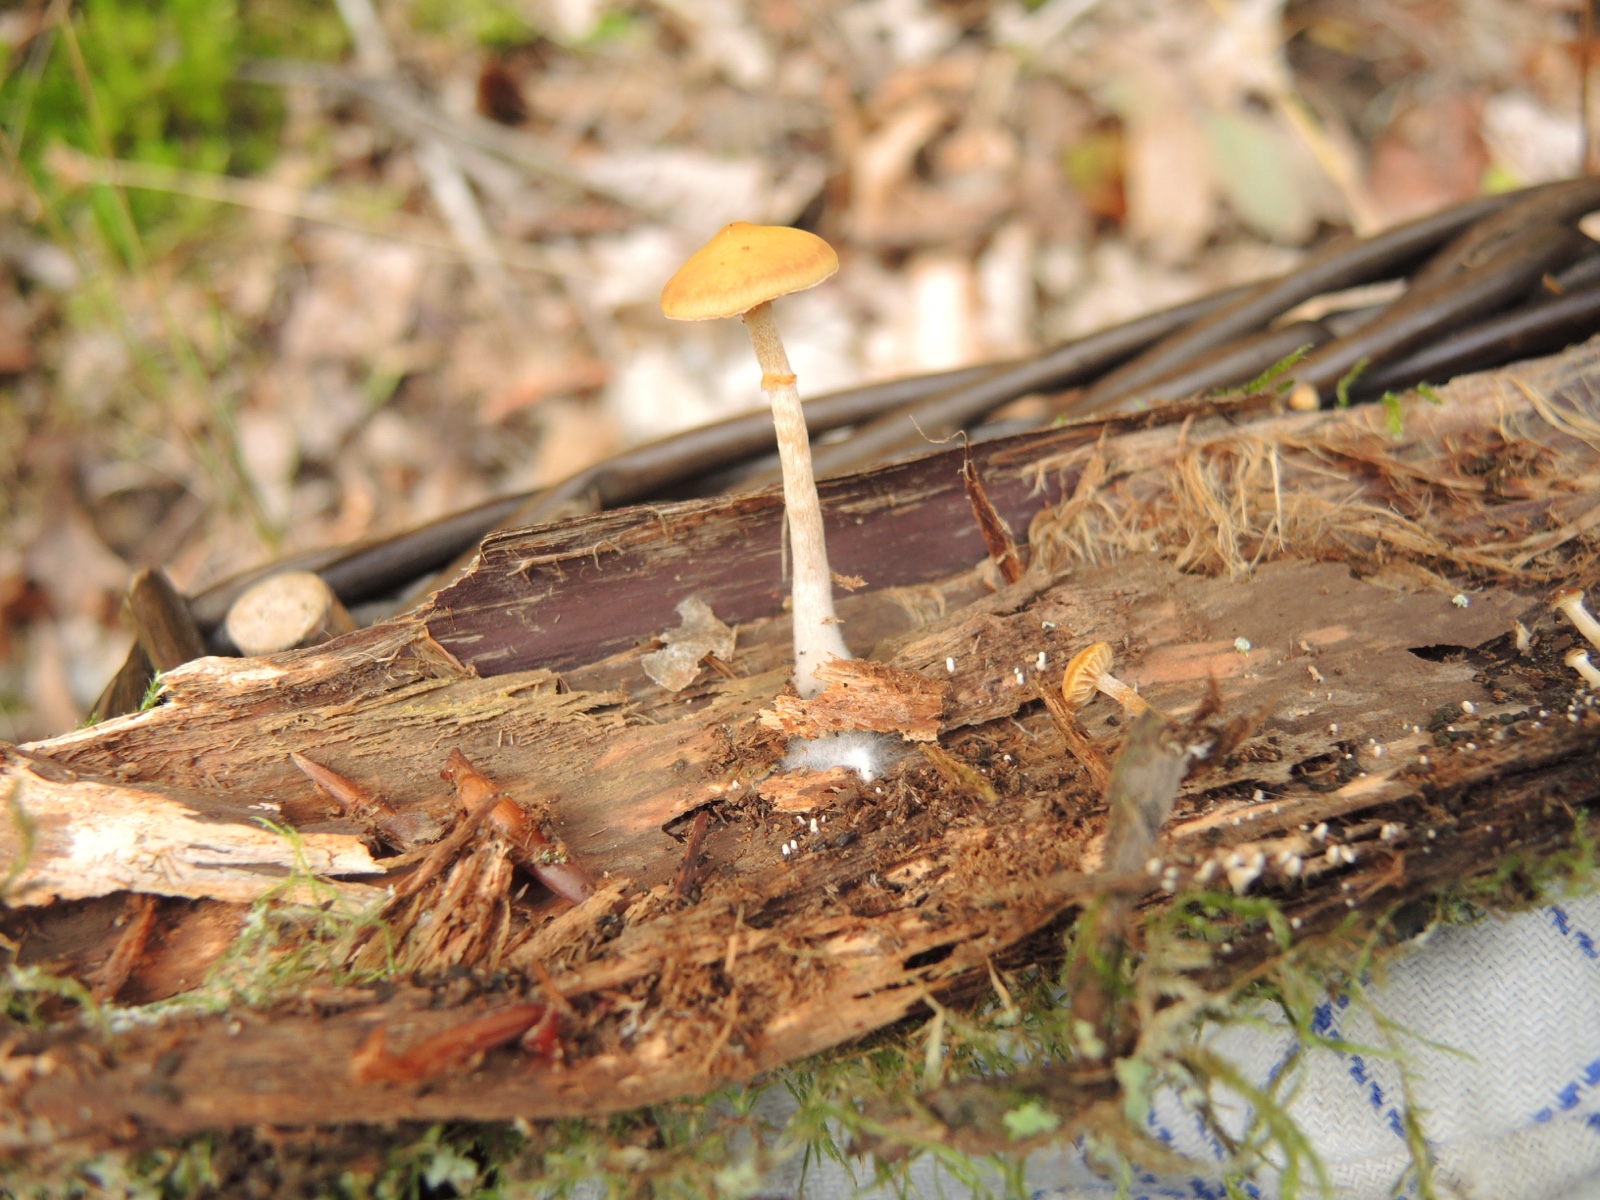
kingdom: Fungi
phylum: Basidiomycota
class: Agaricomycetes
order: Agaricales
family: Hymenogastraceae
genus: Galerina
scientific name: Galerina marginata
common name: randbæltet hjelmhat
